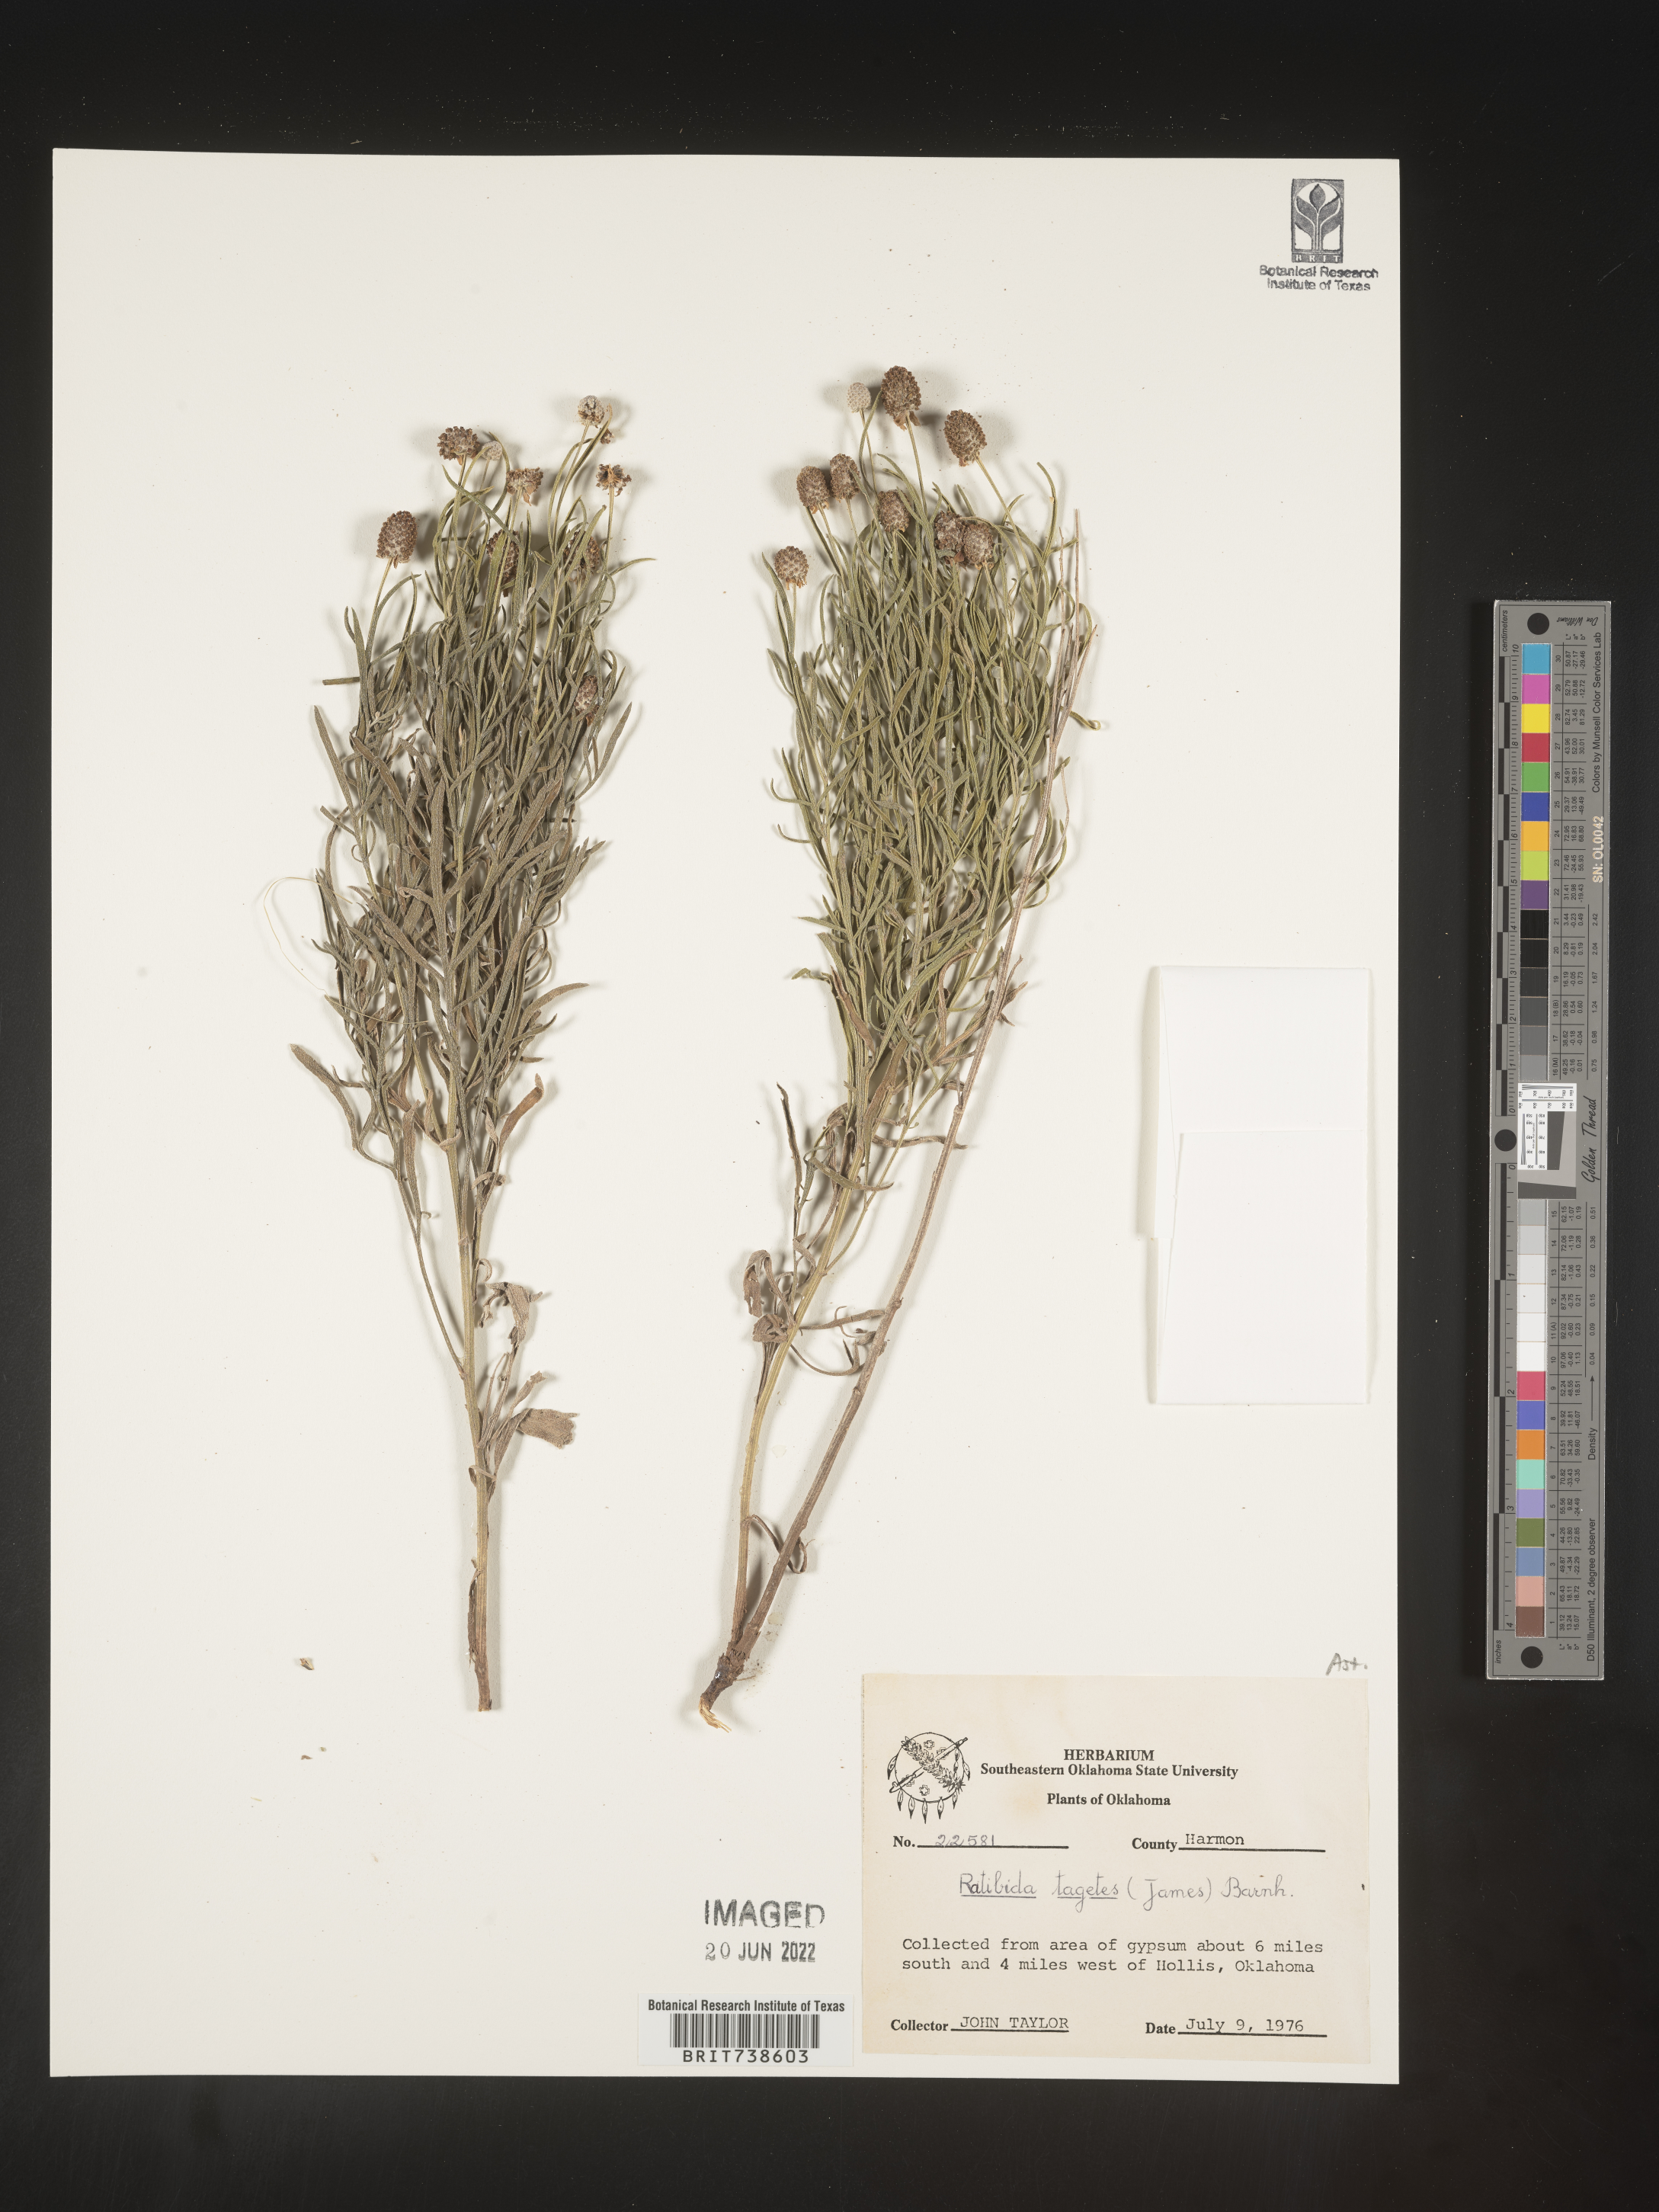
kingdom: Plantae
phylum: Tracheophyta
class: Magnoliopsida
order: Asterales
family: Asteraceae
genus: Ratibida
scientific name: Ratibida tagetes
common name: Green mexican-hat
